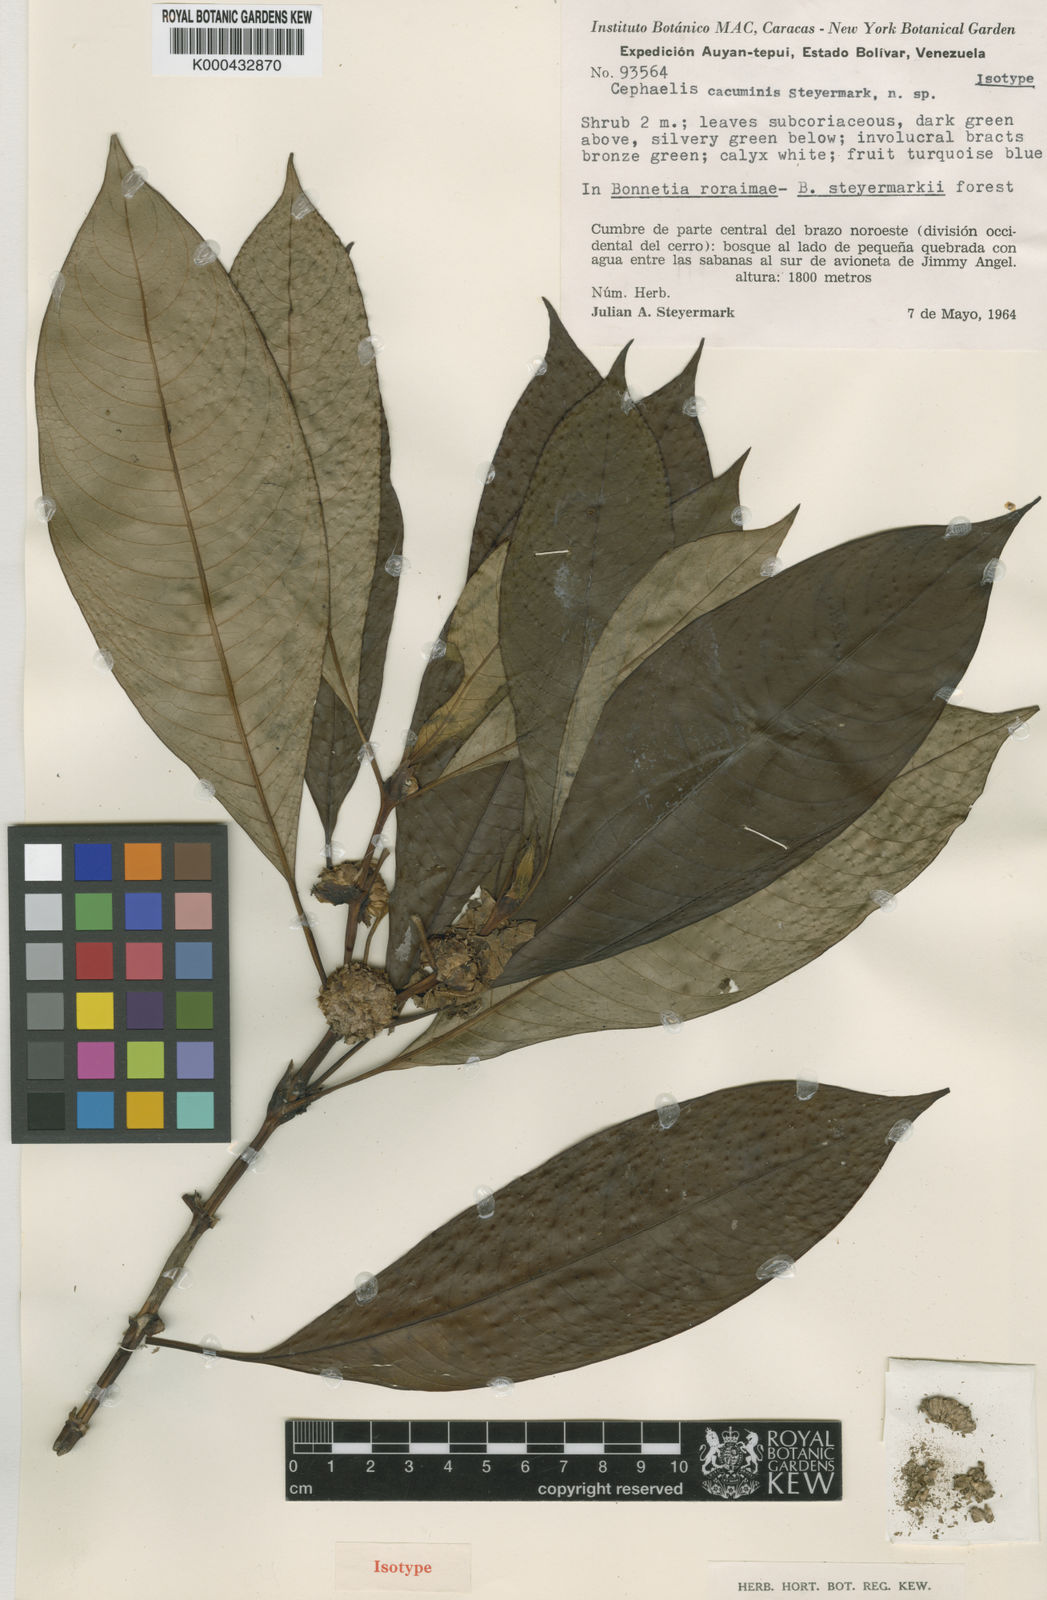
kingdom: Plantae
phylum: Tracheophyta
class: Magnoliopsida
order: Gentianales
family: Rubiaceae
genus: Psychotria
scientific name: Psychotria
